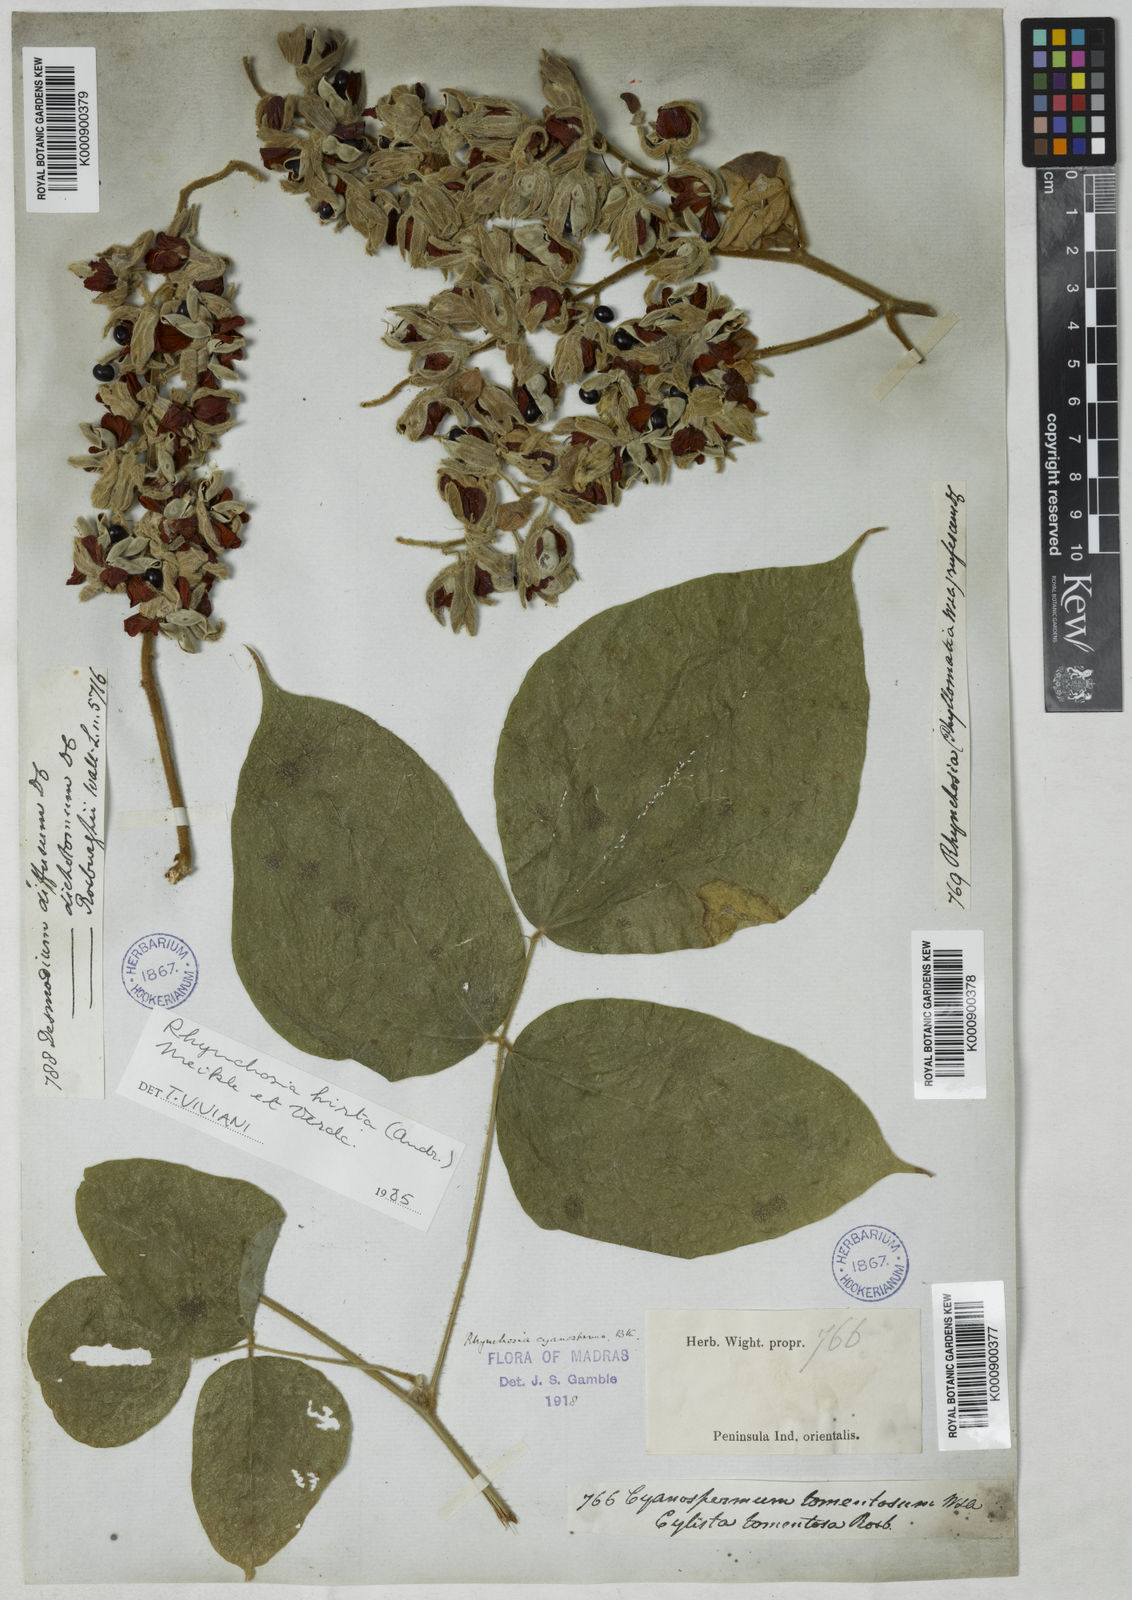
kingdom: Plantae
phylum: Tracheophyta
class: Magnoliopsida
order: Fabales
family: Fabaceae
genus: Rhynchosia
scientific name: Rhynchosia hirta
